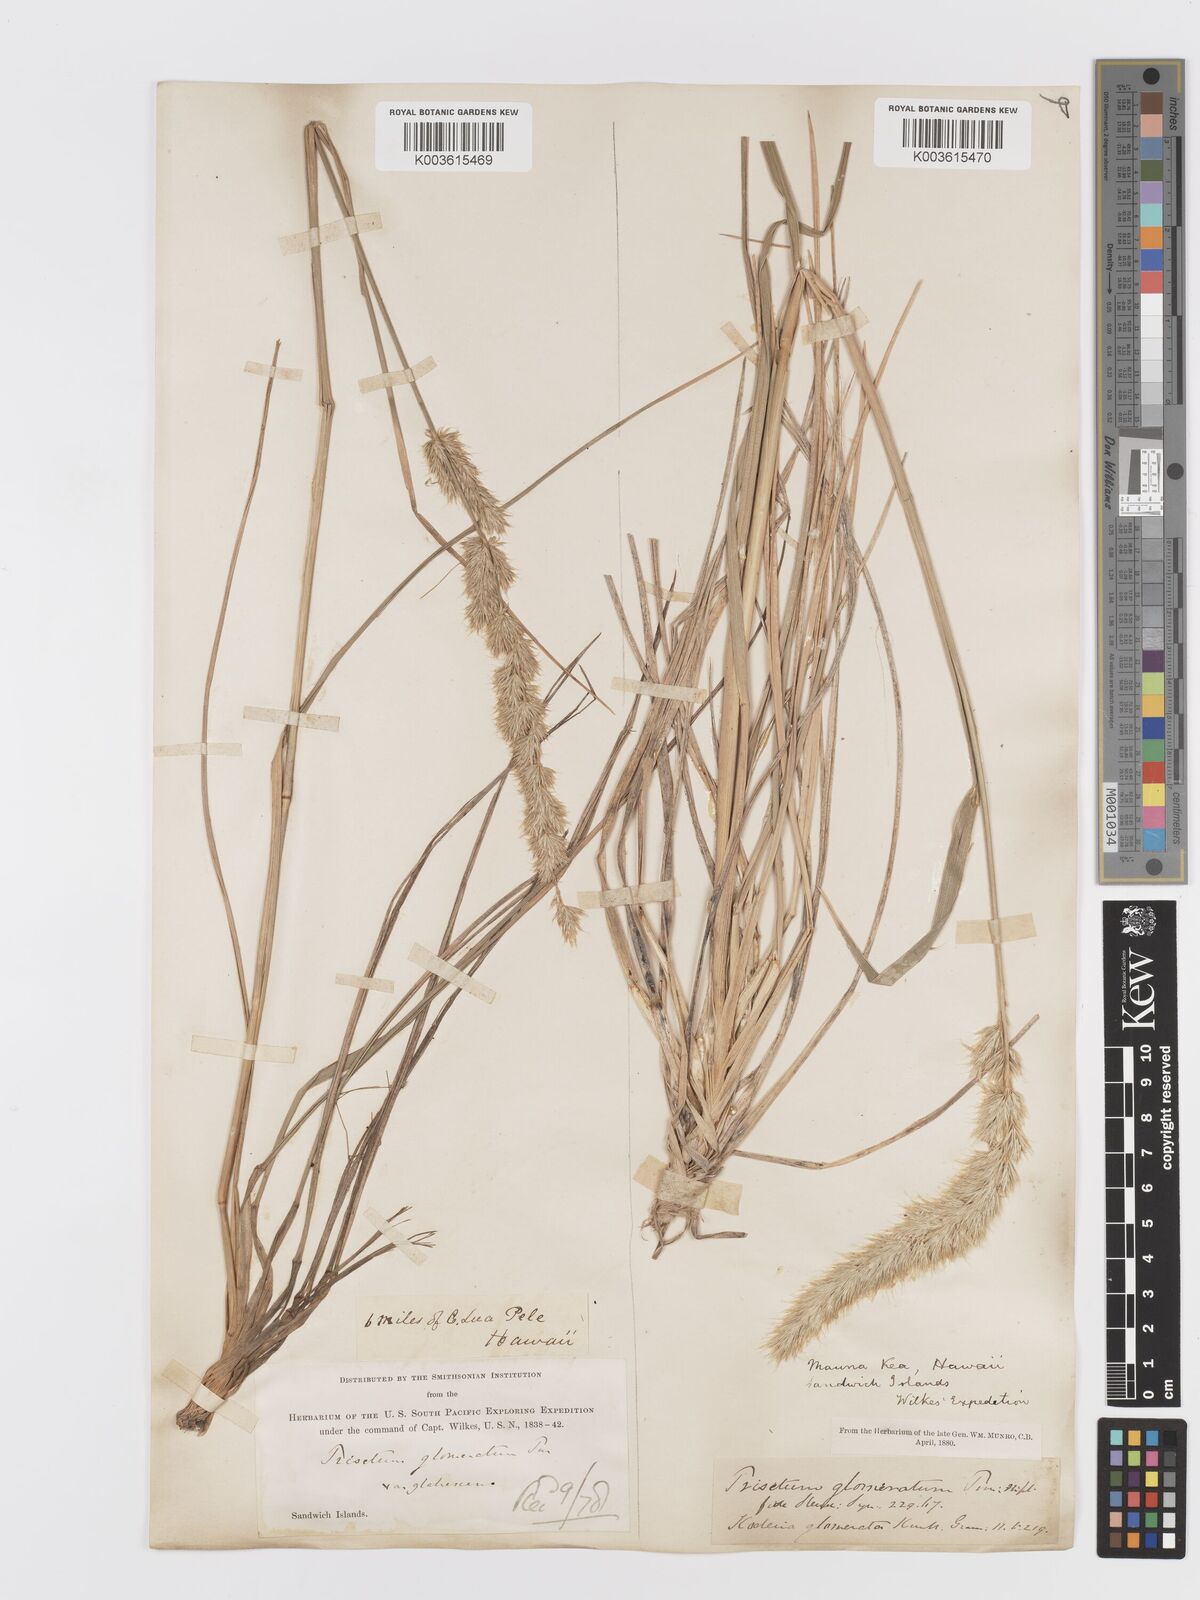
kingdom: Plantae
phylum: Tracheophyta
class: Liliopsida
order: Poales
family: Poaceae
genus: Trisetum
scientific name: Trisetum glomeratum
